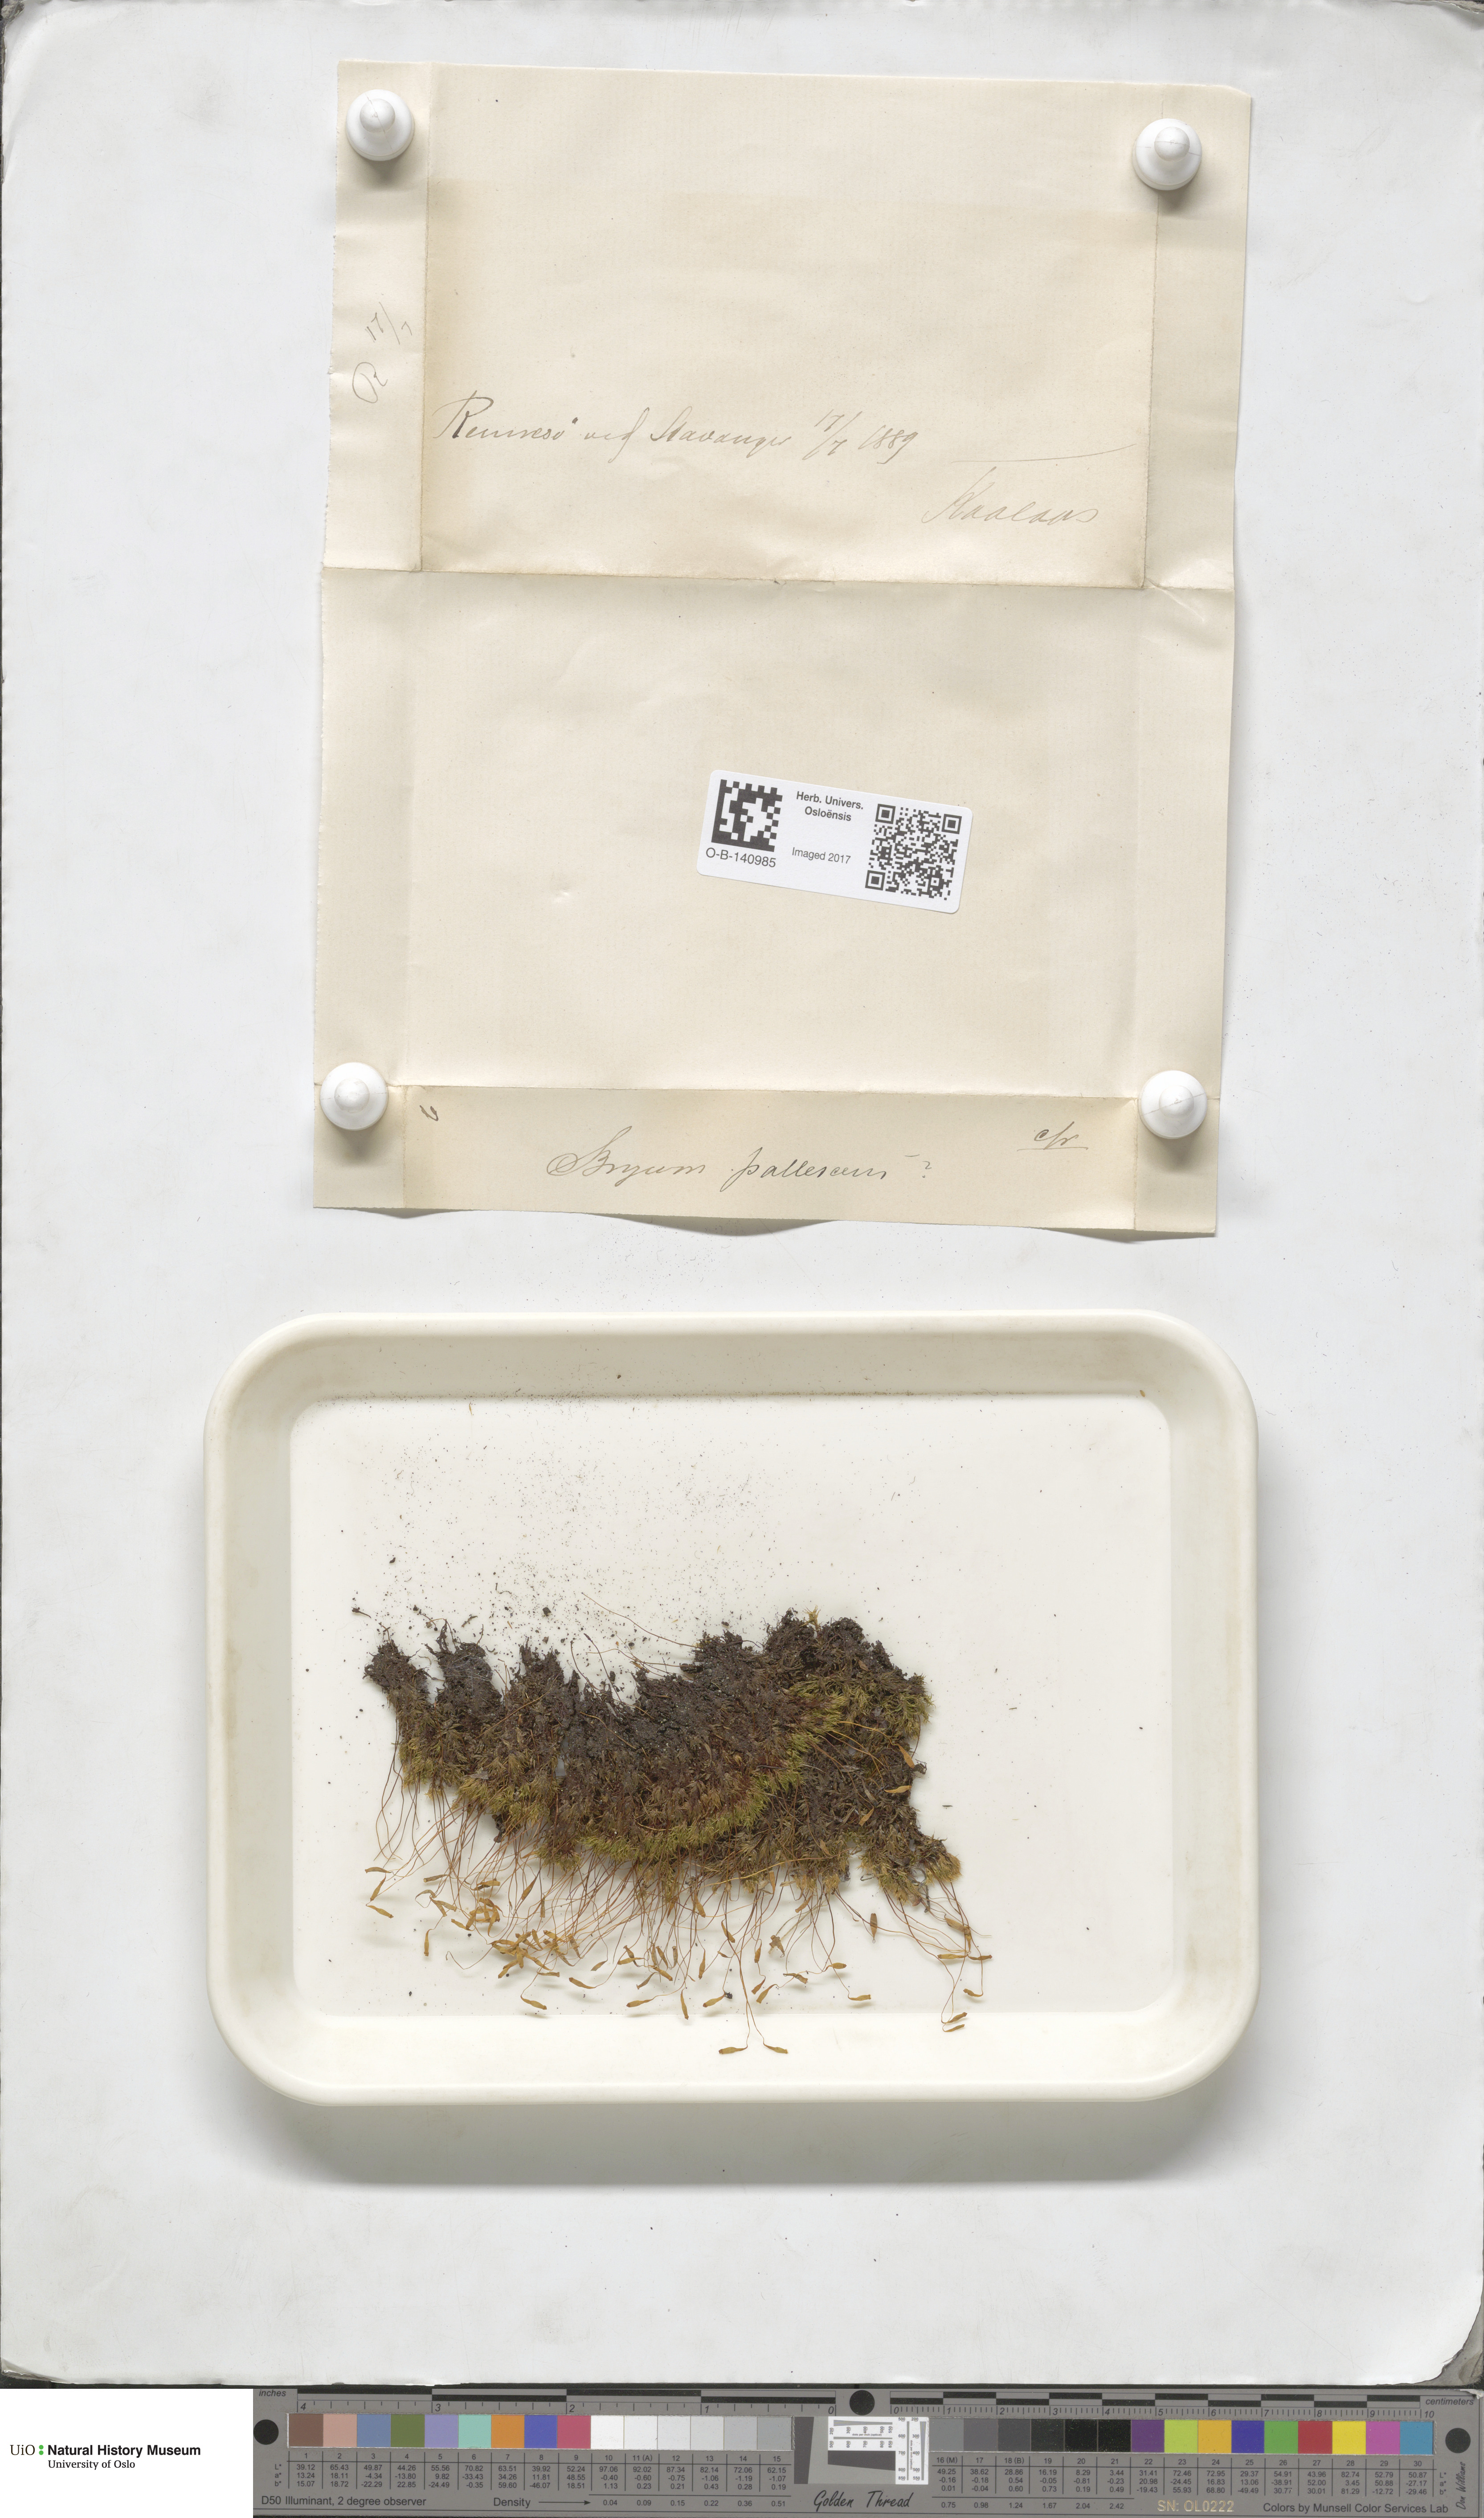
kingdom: Plantae
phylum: Bryophyta
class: Bryopsida
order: Bryales
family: Bryaceae
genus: Ptychostomum
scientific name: Ptychostomum pallescens
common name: Tall-clustered thread-moss
